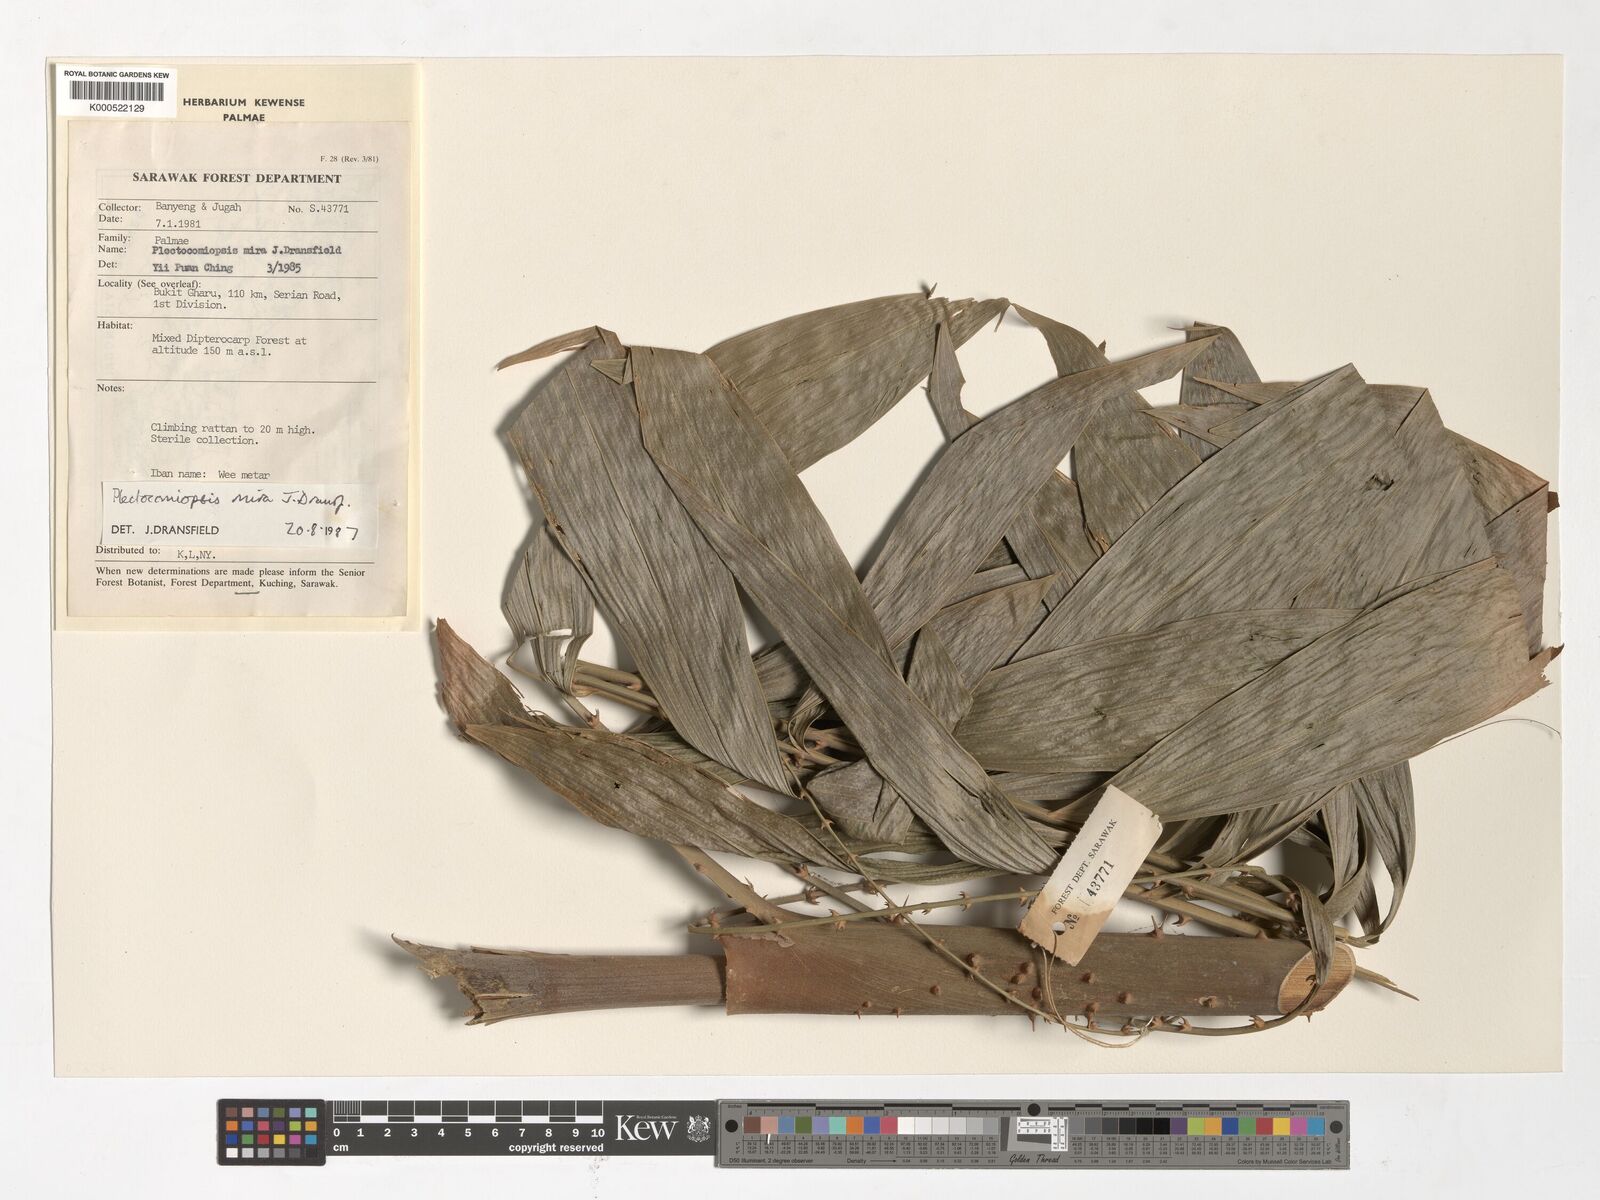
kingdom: Plantae
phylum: Tracheophyta
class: Liliopsida
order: Arecales
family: Arecaceae
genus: Plectocomiopsis
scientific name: Plectocomiopsis mira
